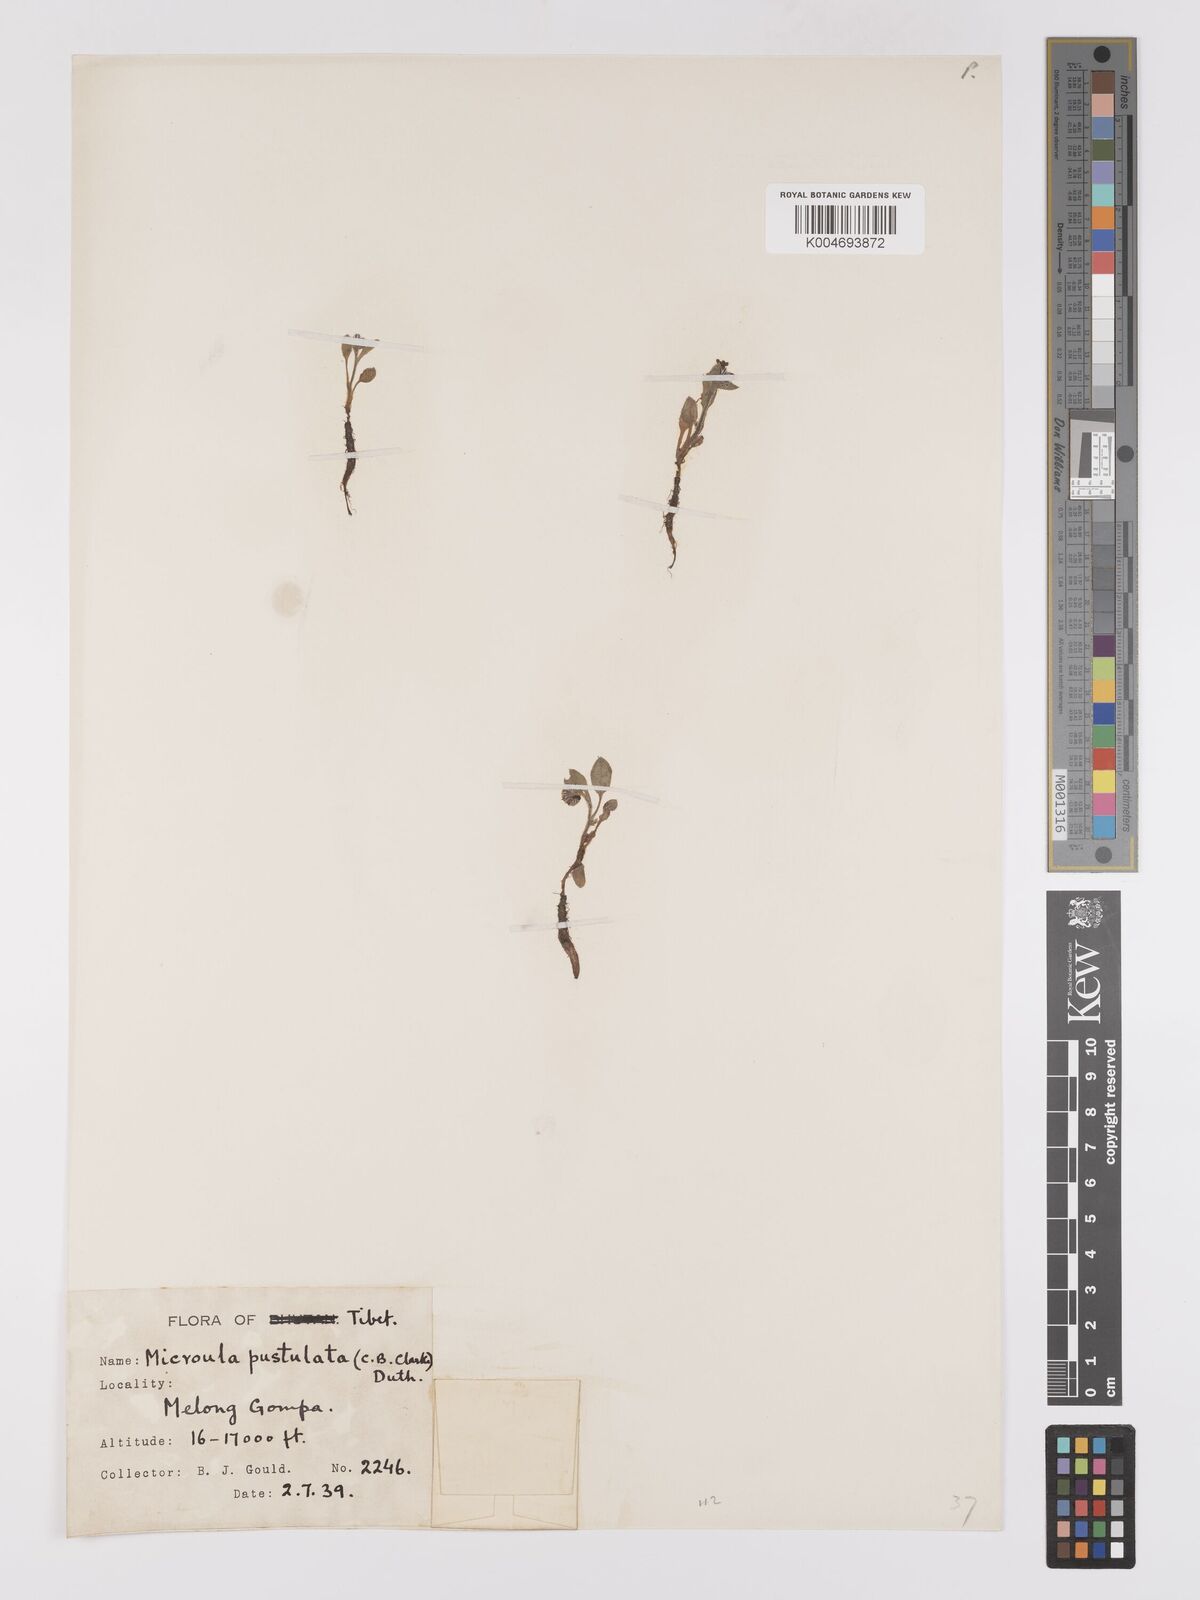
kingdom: Plantae
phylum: Tracheophyta
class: Magnoliopsida
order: Boraginales
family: Boraginaceae
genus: Microula
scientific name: Microula pustulosa
